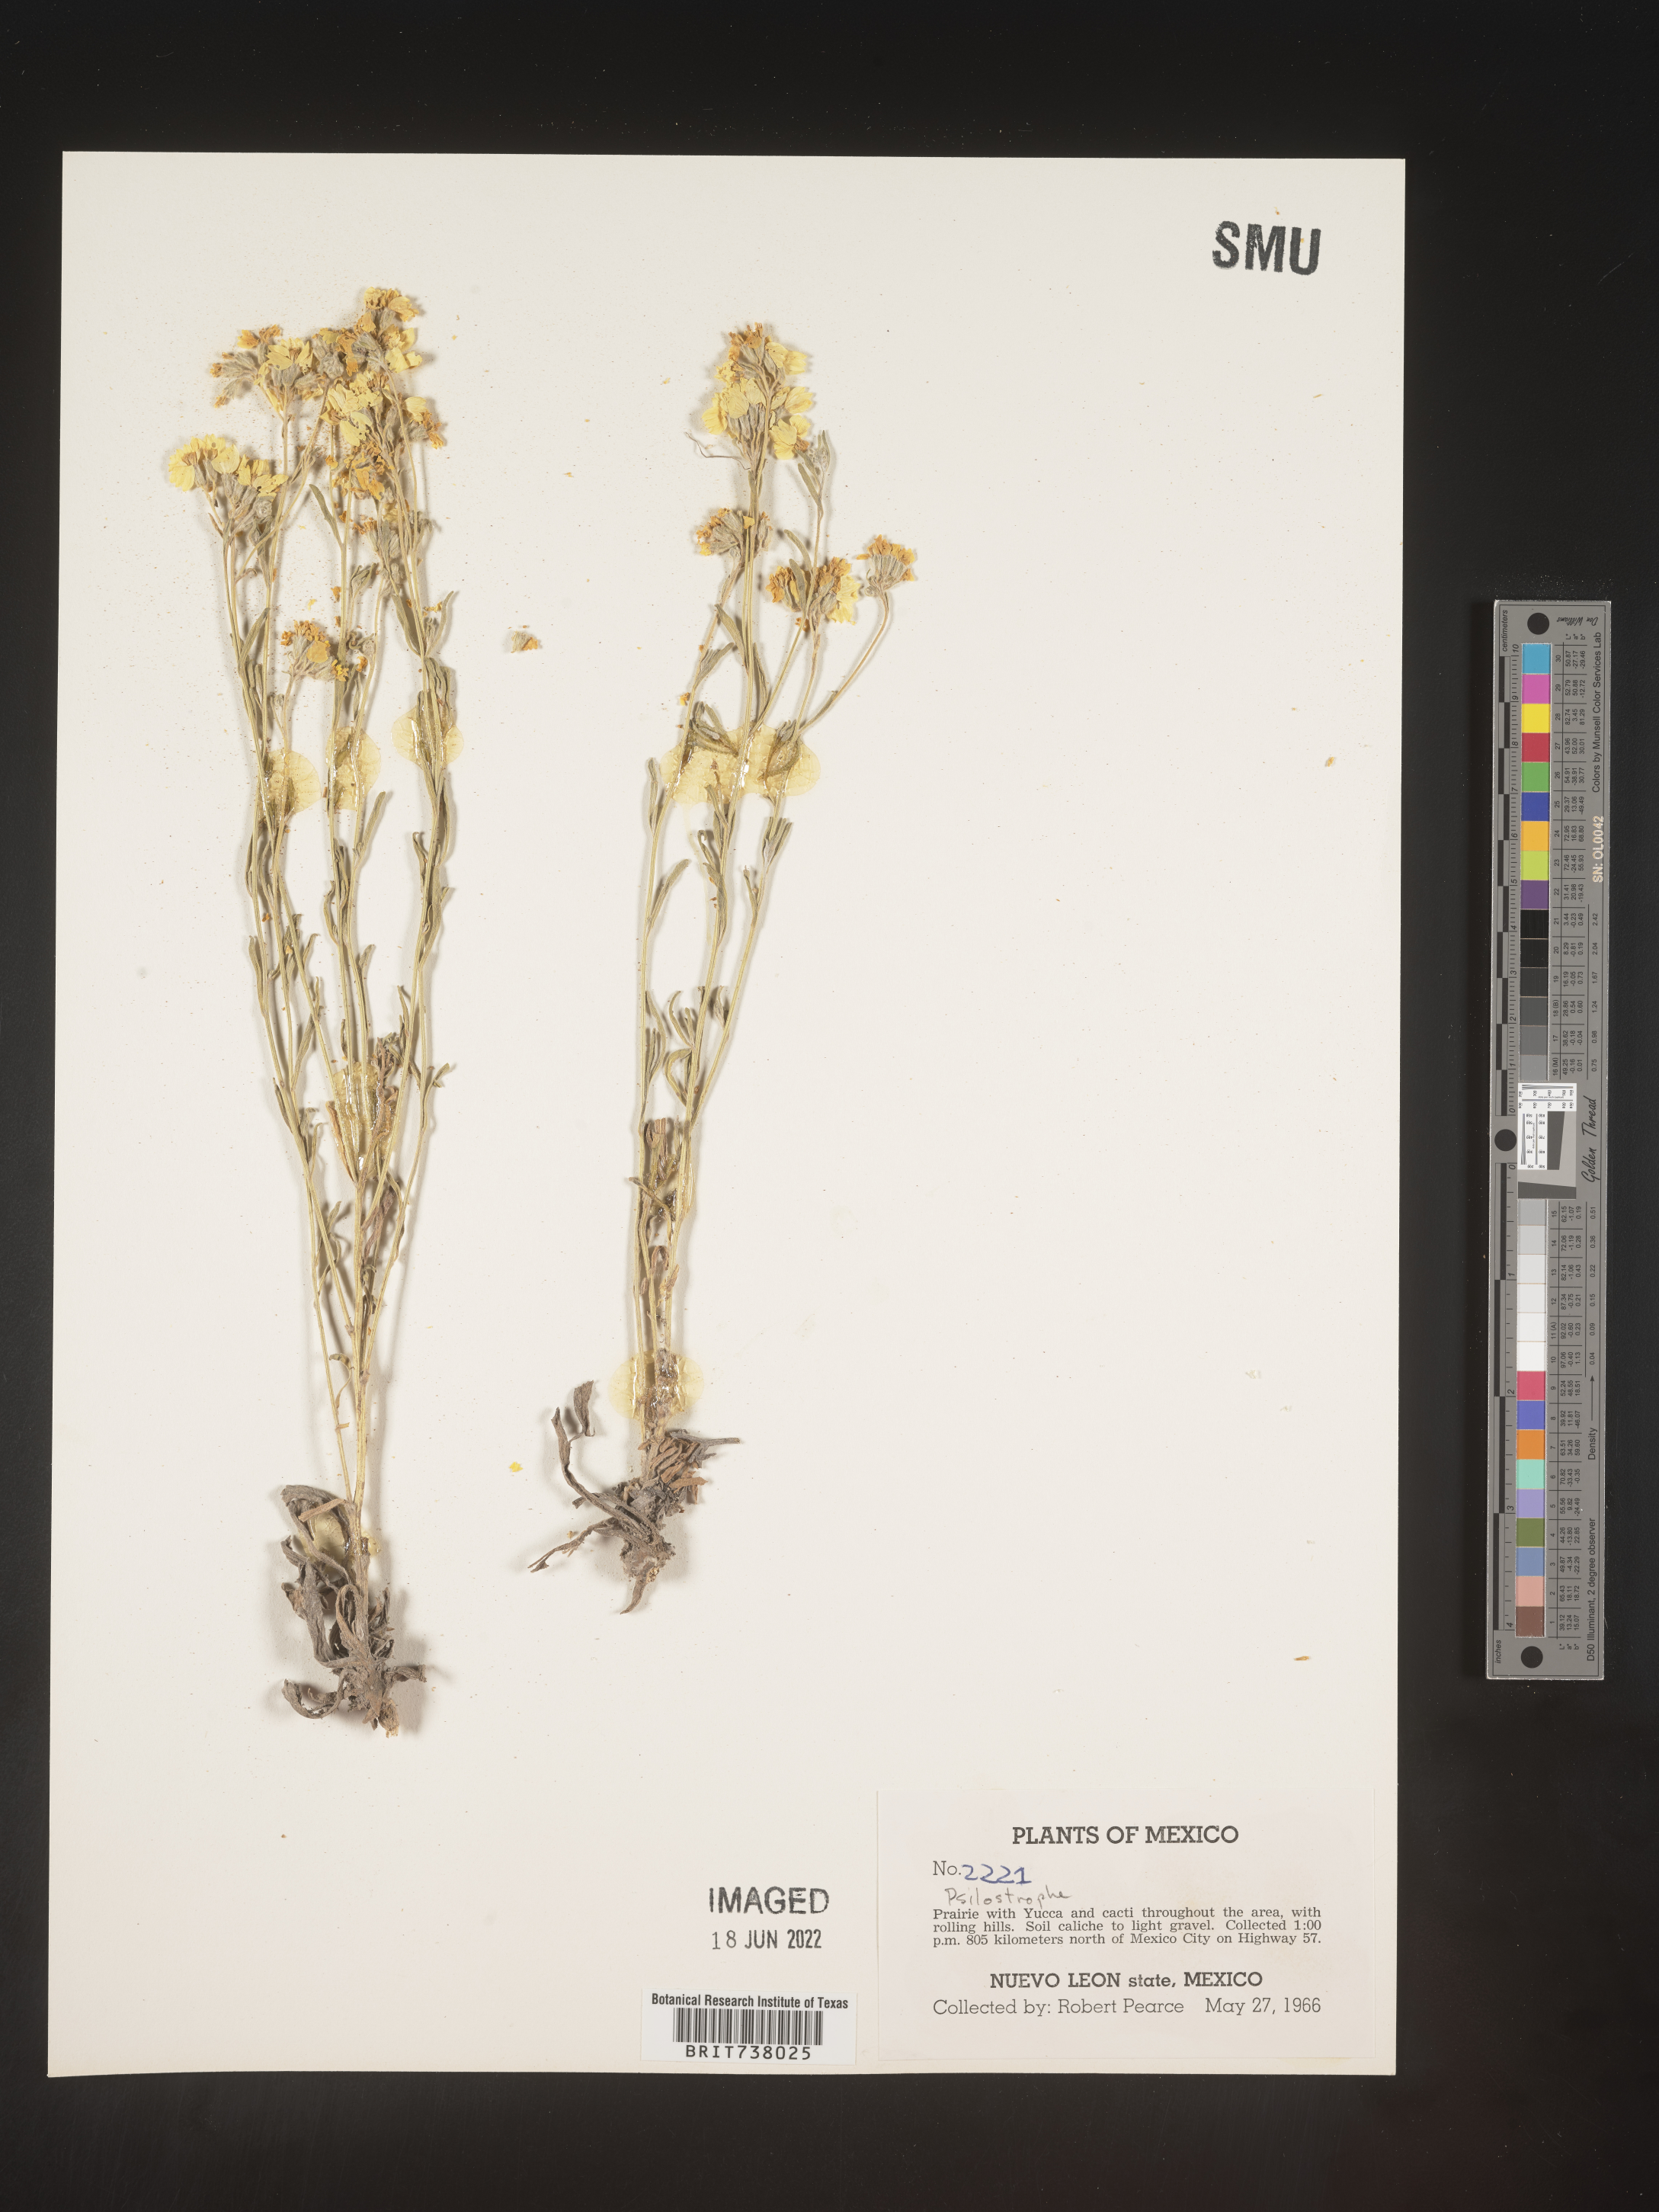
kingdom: Plantae
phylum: Tracheophyta
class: Magnoliopsida
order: Asterales
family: Asteraceae
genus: Psilostrophe
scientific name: Psilostrophe
